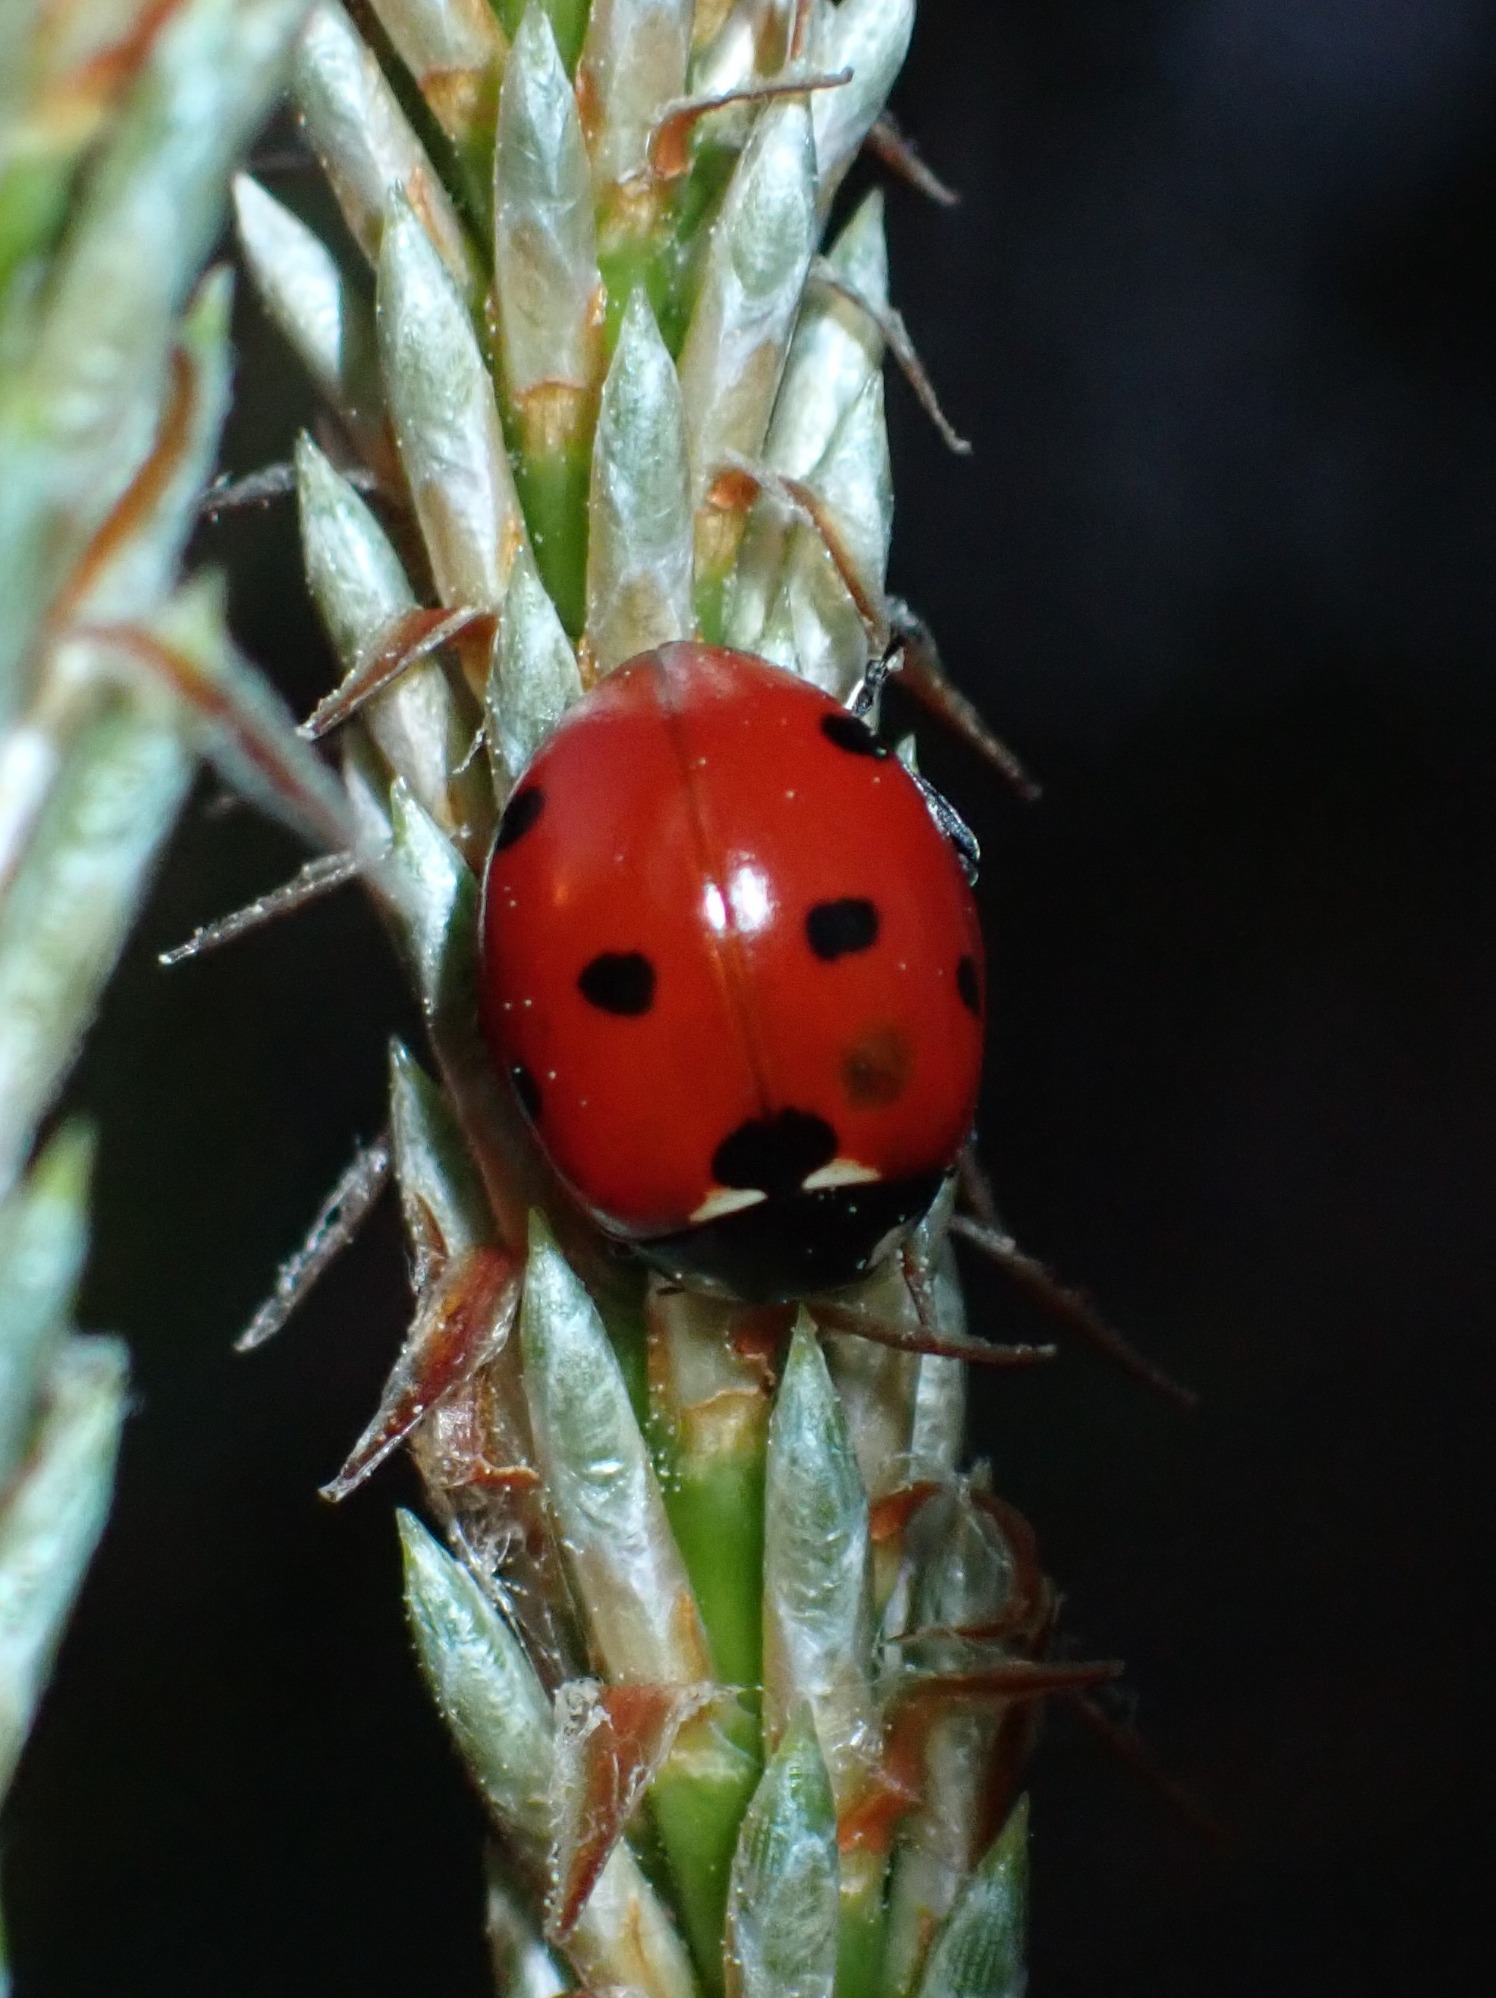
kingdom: Animalia
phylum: Arthropoda
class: Insecta
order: Coleoptera
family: Coccinellidae
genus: Coccinella
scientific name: Coccinella septempunctata
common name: Syvplettet mariehøne
